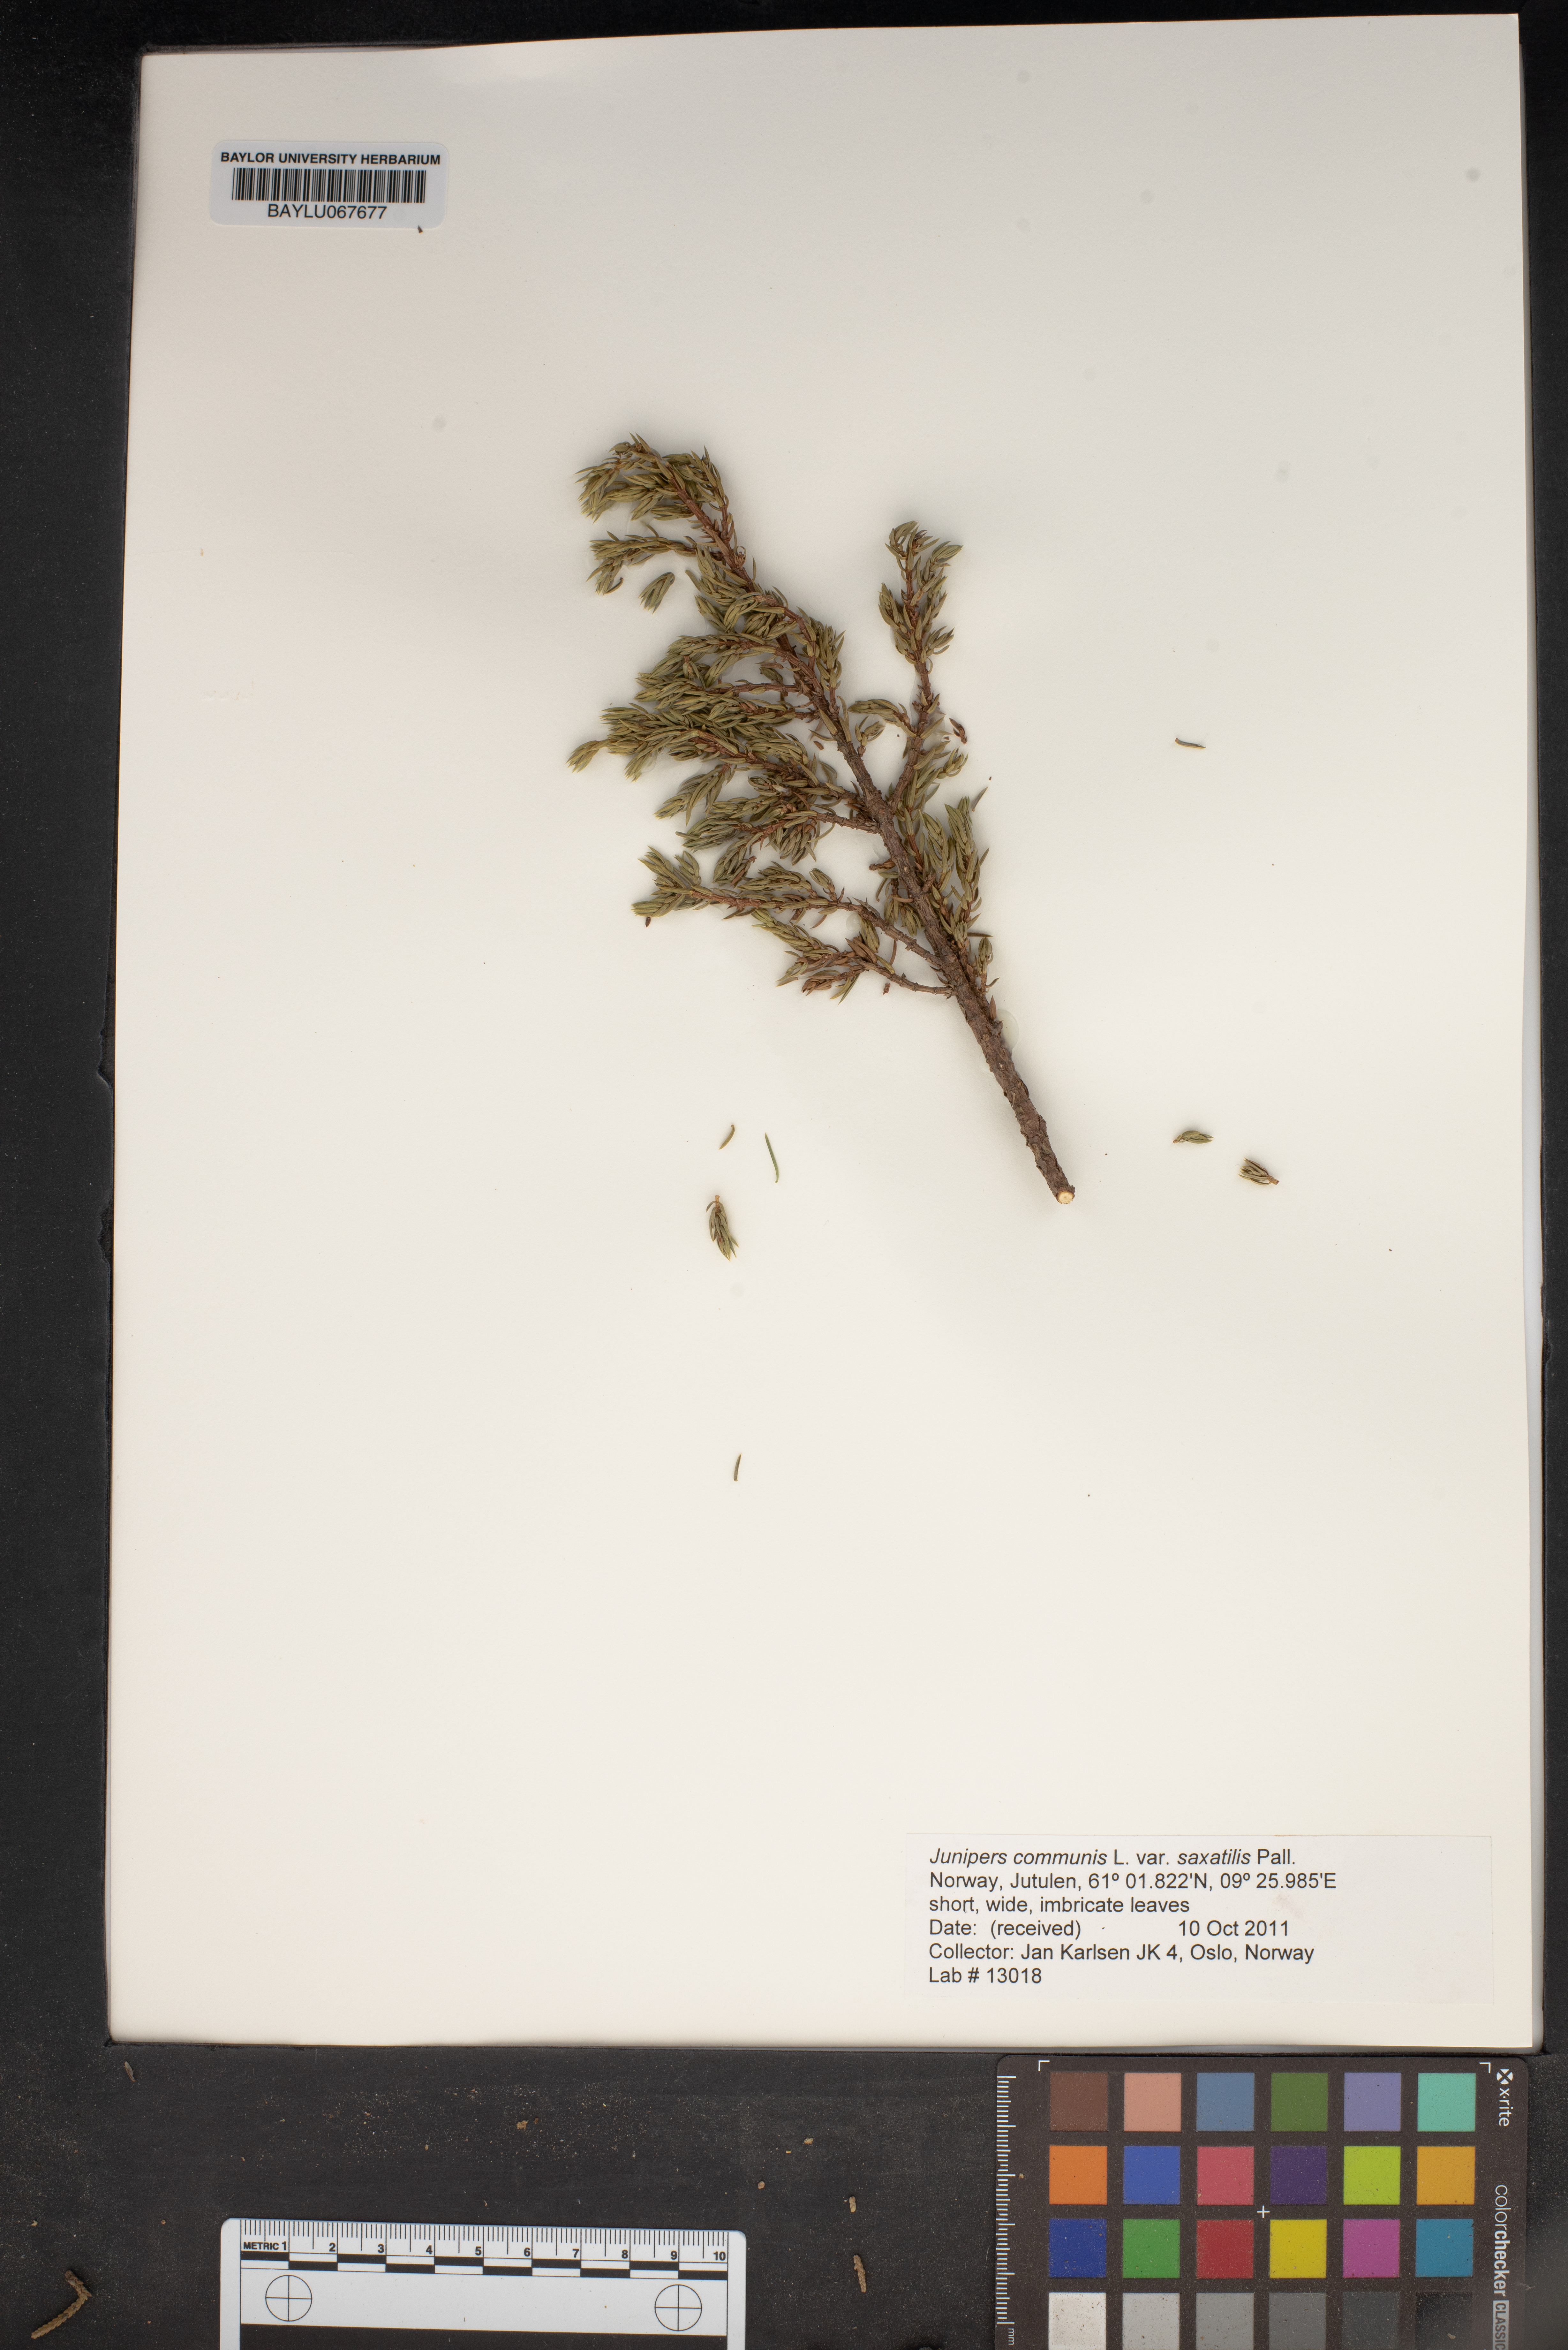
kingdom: Plantae
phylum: Tracheophyta
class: Pinopsida
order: Pinales
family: Cupressaceae
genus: Juniperus
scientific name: Juniperus communis
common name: Common juniper
